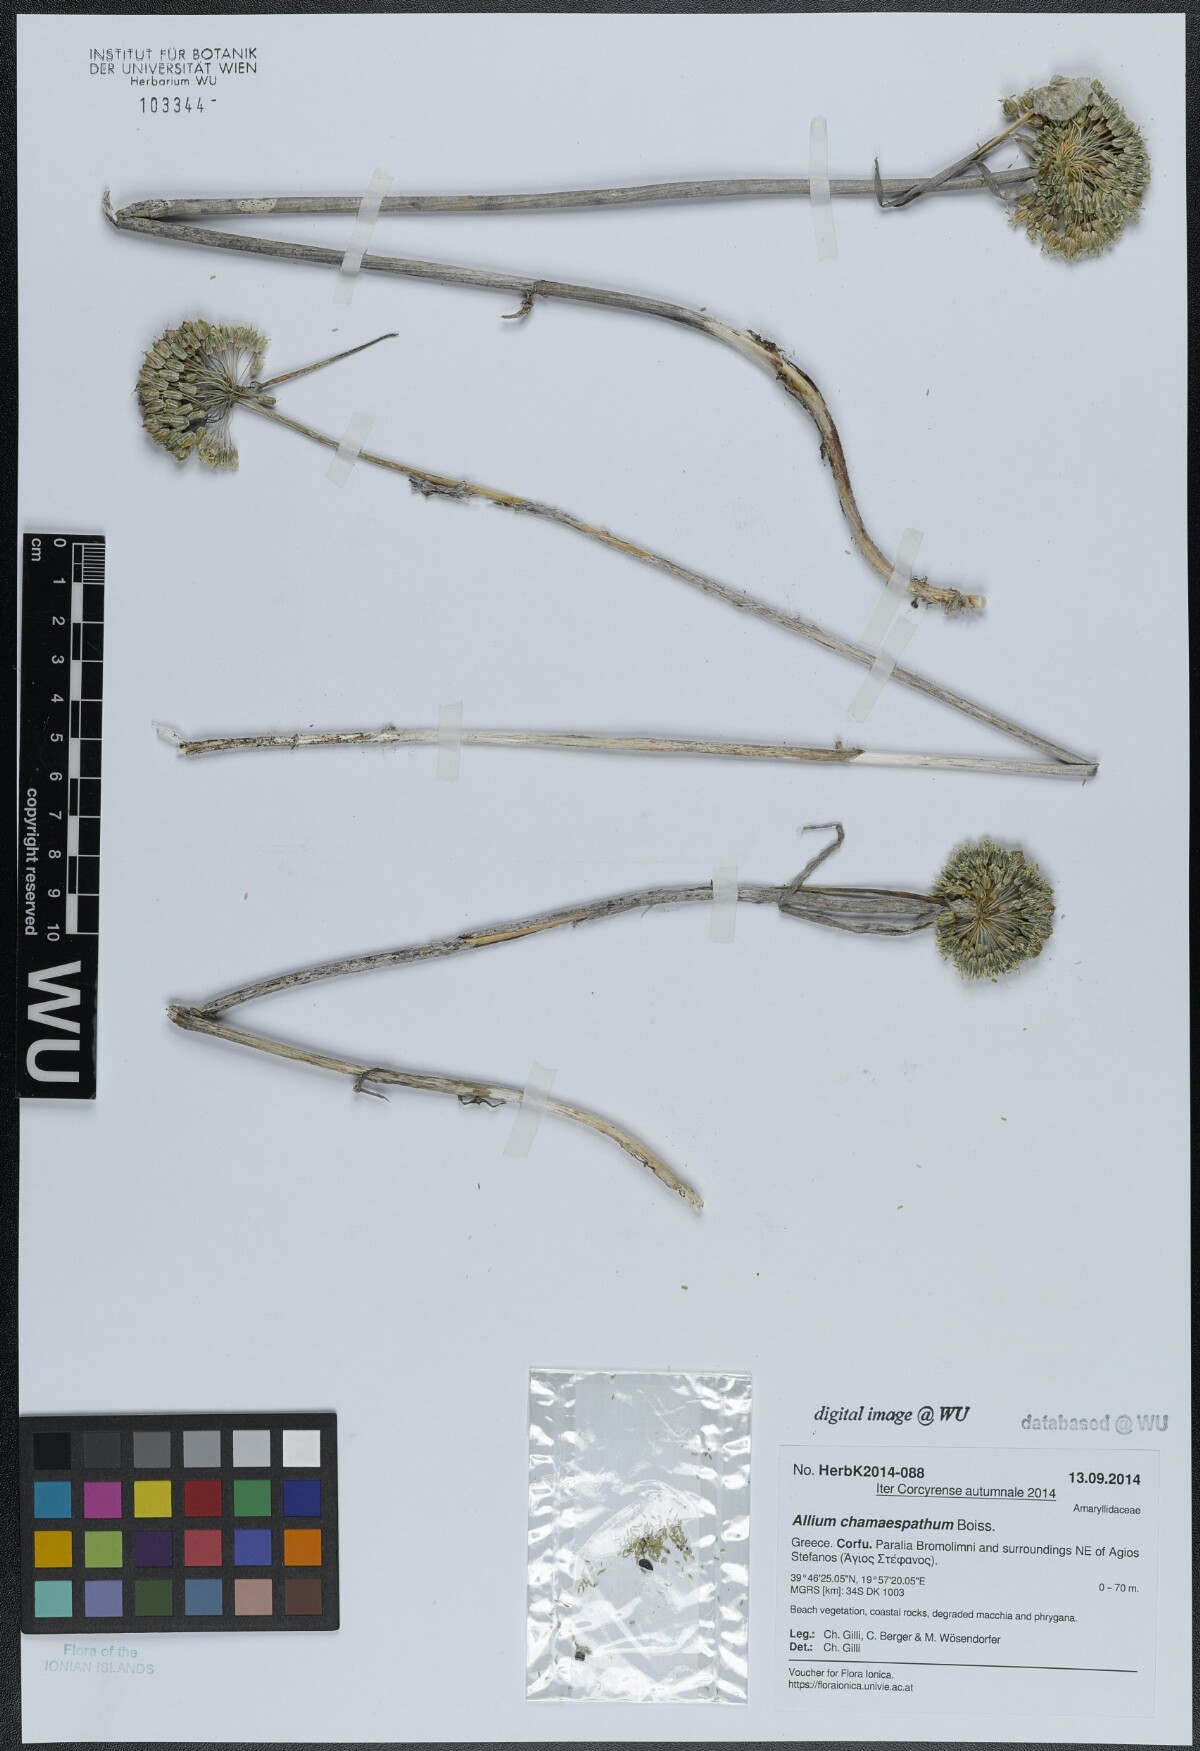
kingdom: Plantae
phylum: Tracheophyta
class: Liliopsida
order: Asparagales
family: Amaryllidaceae
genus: Allium
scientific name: Allium chamaespathum
